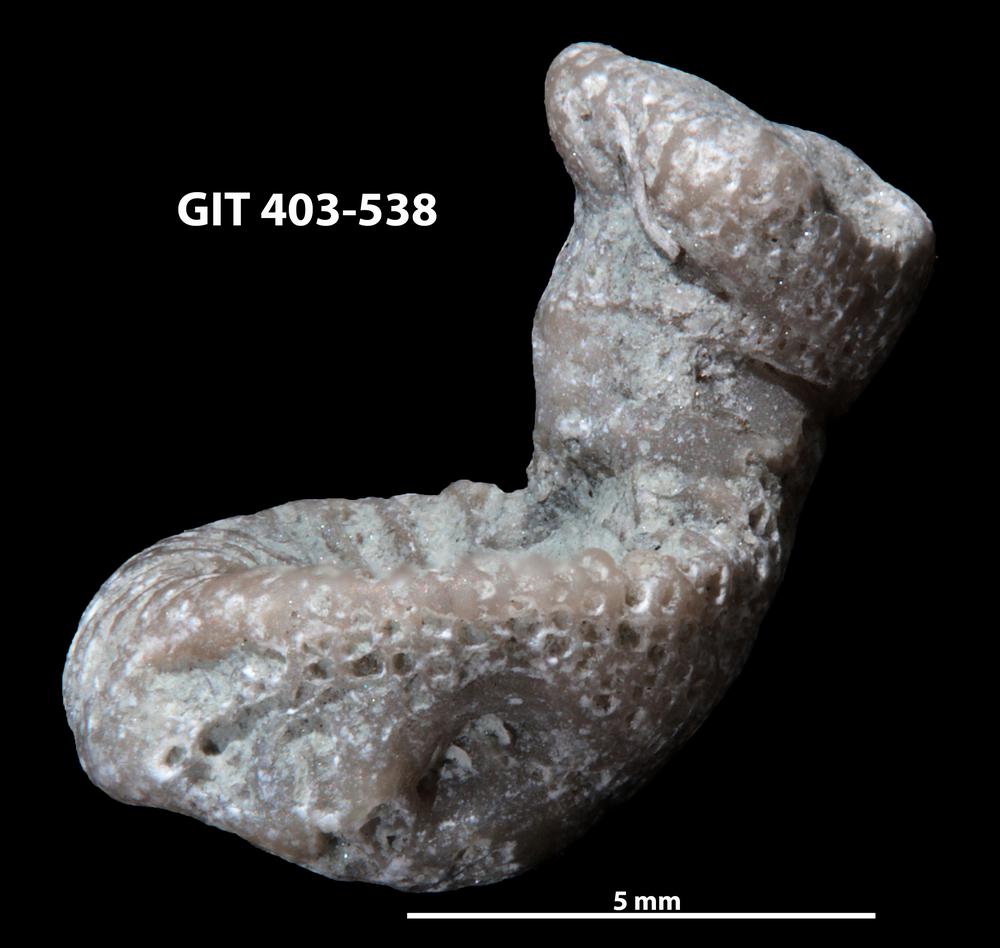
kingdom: Animalia
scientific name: Animalia
